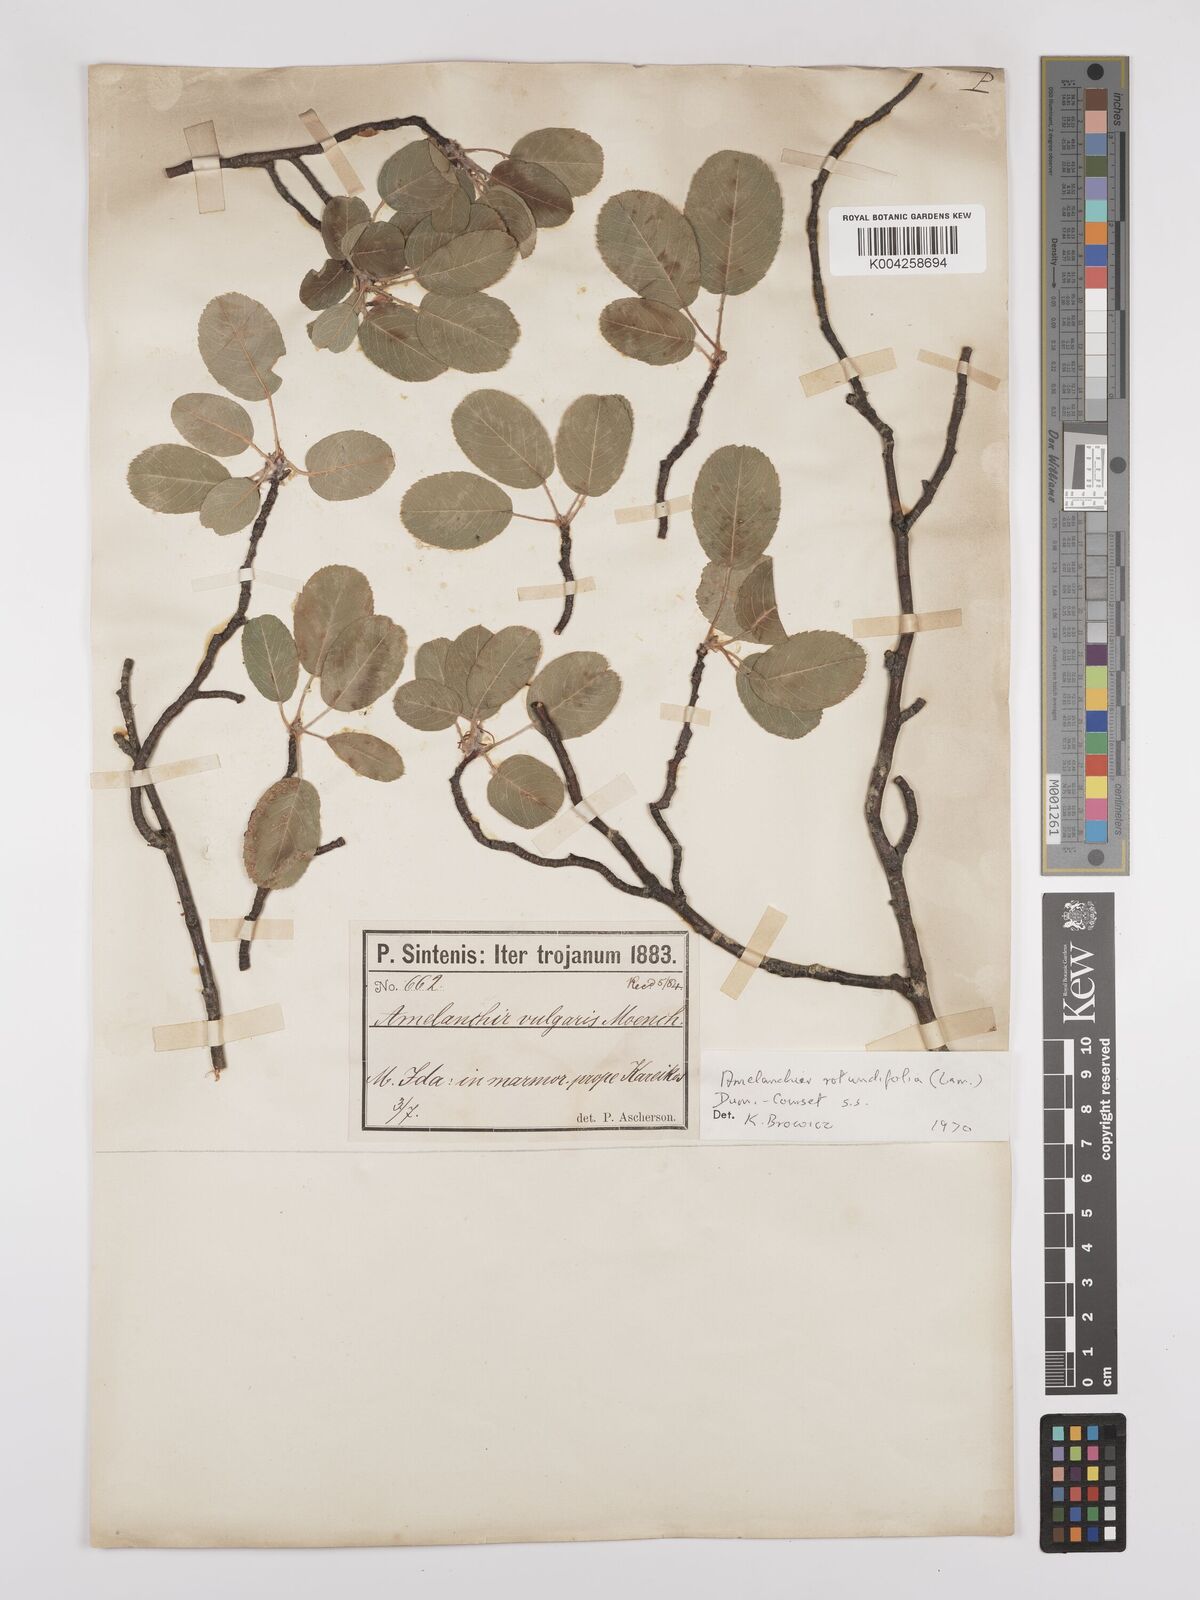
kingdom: Plantae
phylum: Tracheophyta
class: Magnoliopsida
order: Rosales
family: Rosaceae
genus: Amelanchier
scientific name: Amelanchier ovalis
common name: Serviceberry
